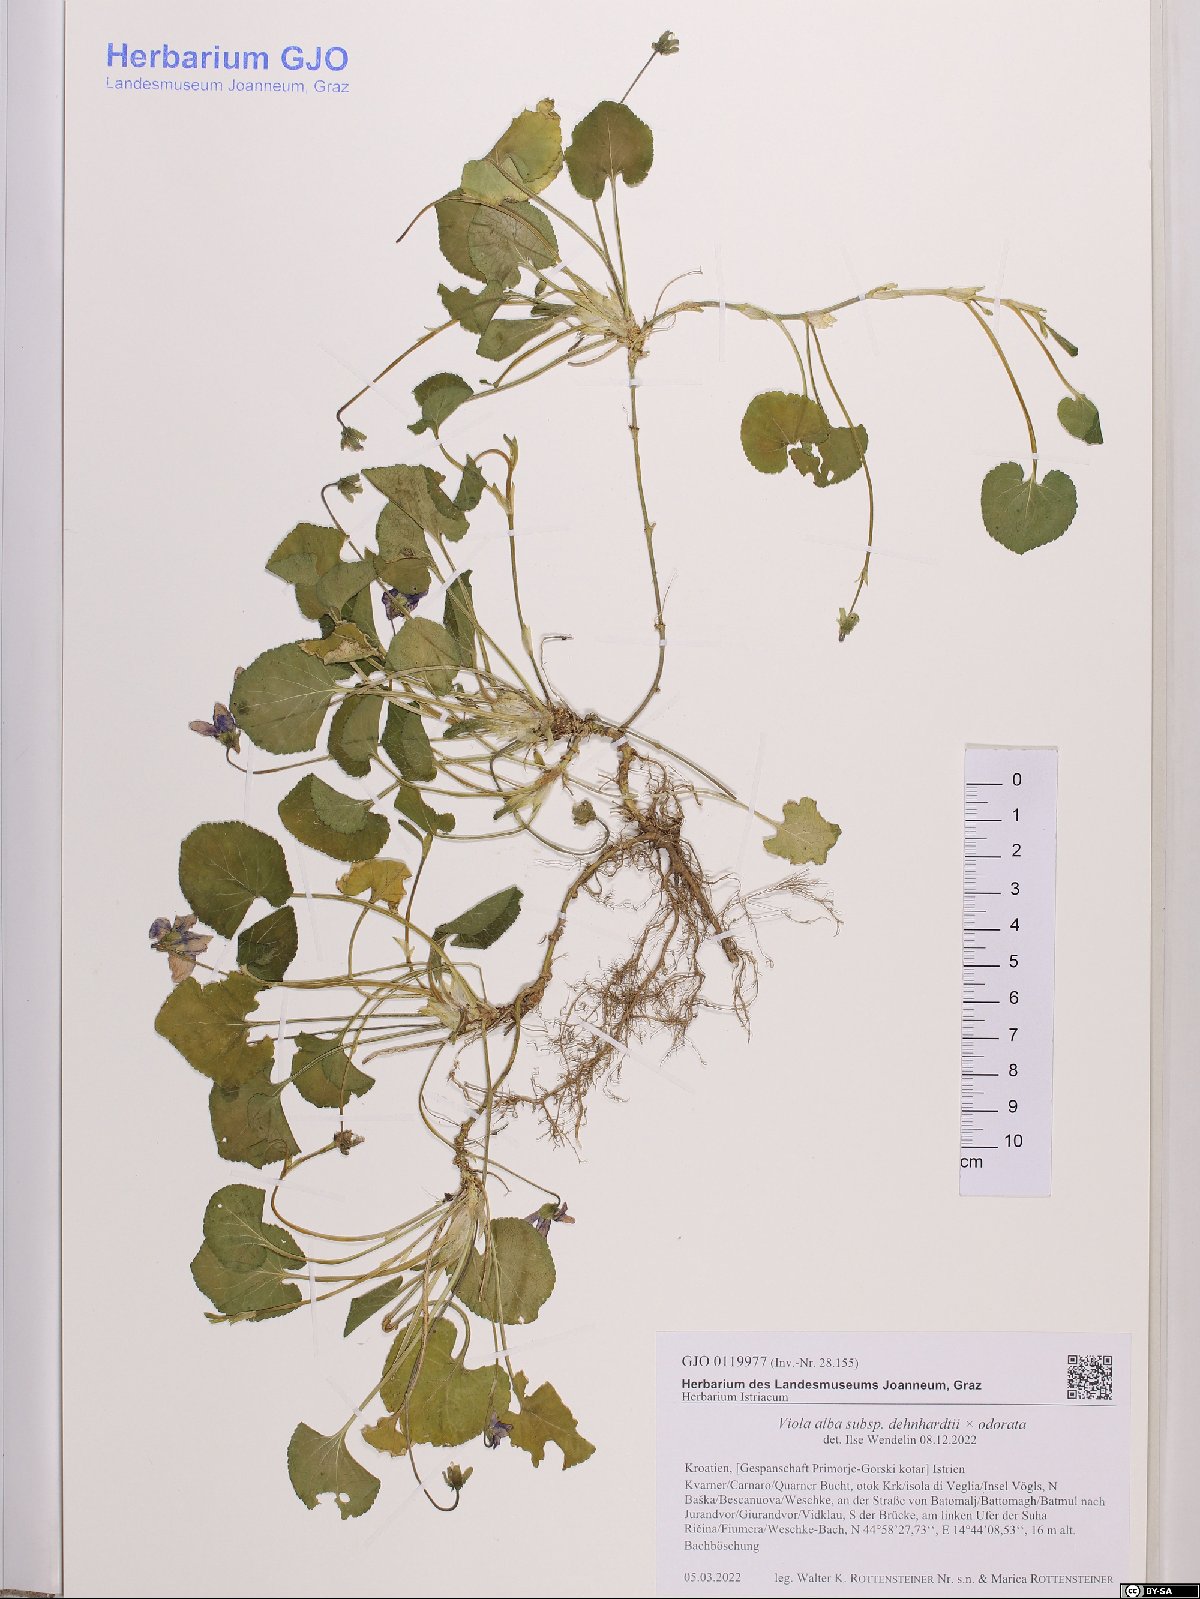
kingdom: Plantae
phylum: Tracheophyta
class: Magnoliopsida
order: Malpighiales
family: Violaceae
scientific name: Violaceae
